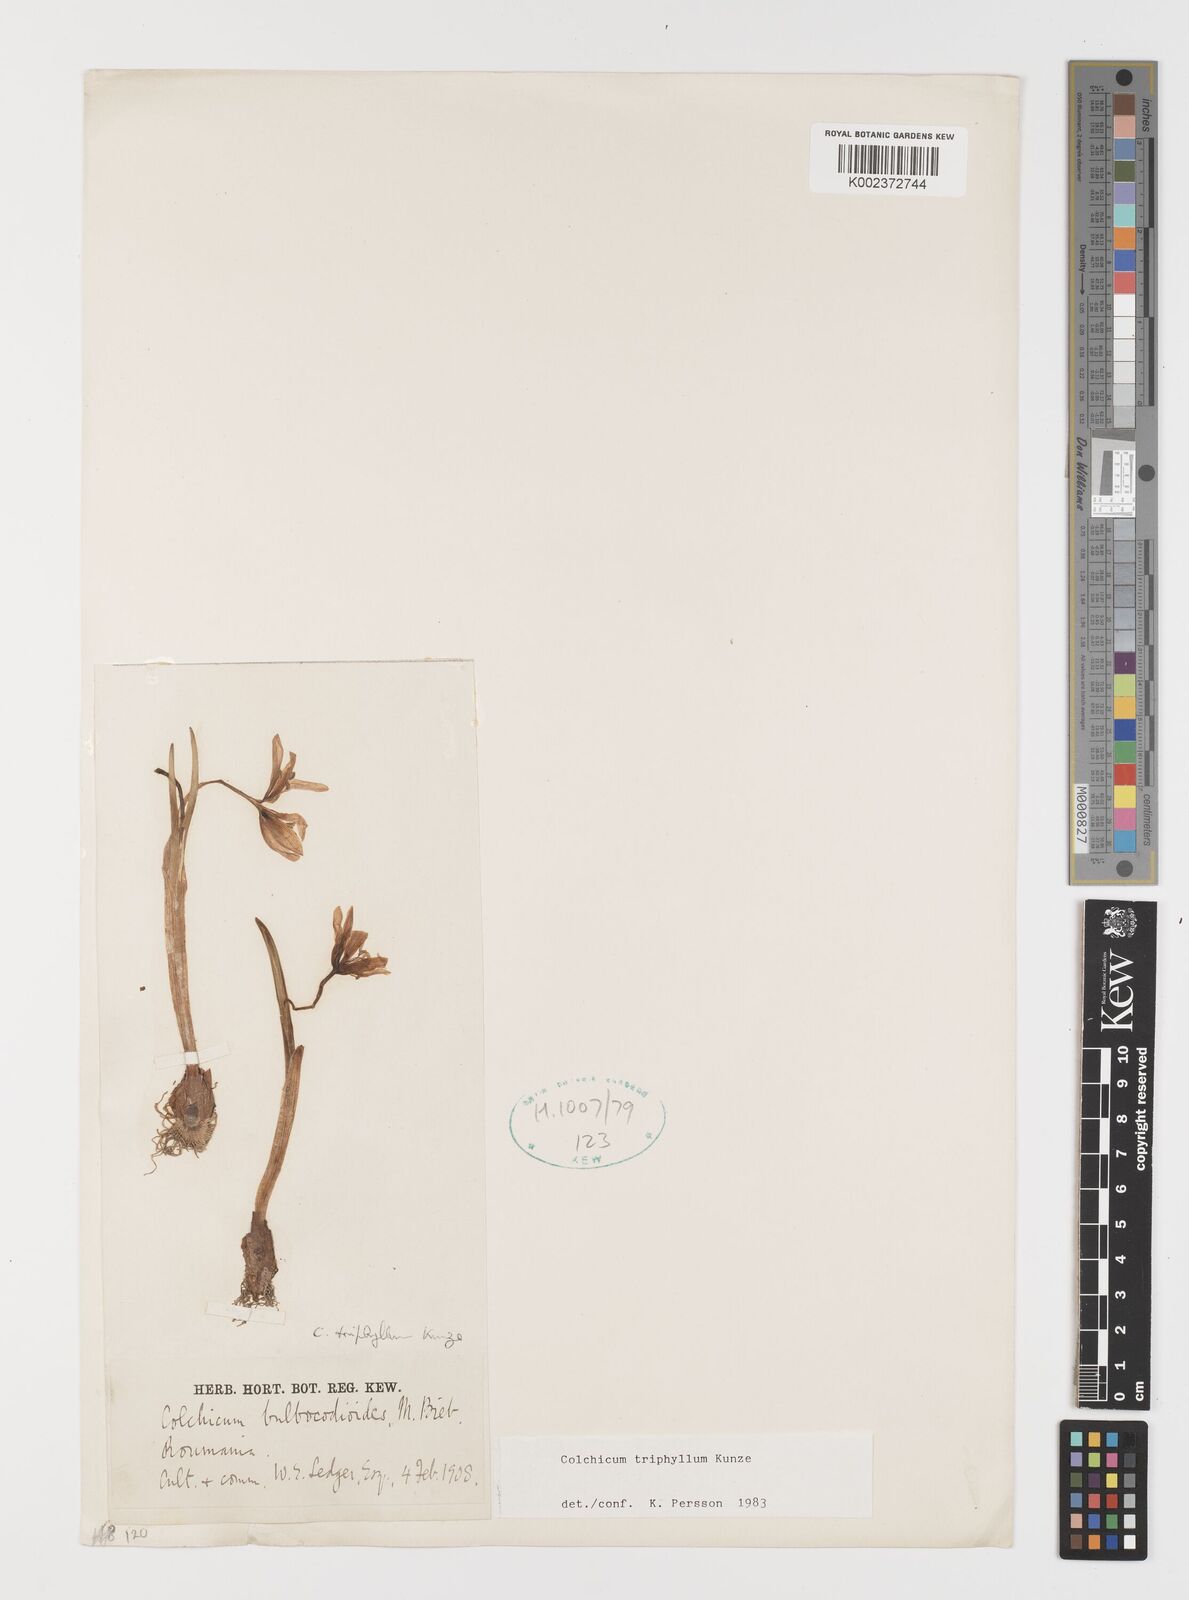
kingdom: Plantae
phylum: Tracheophyta
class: Liliopsida
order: Liliales
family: Colchicaceae
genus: Colchicum
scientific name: Colchicum triphyllum
